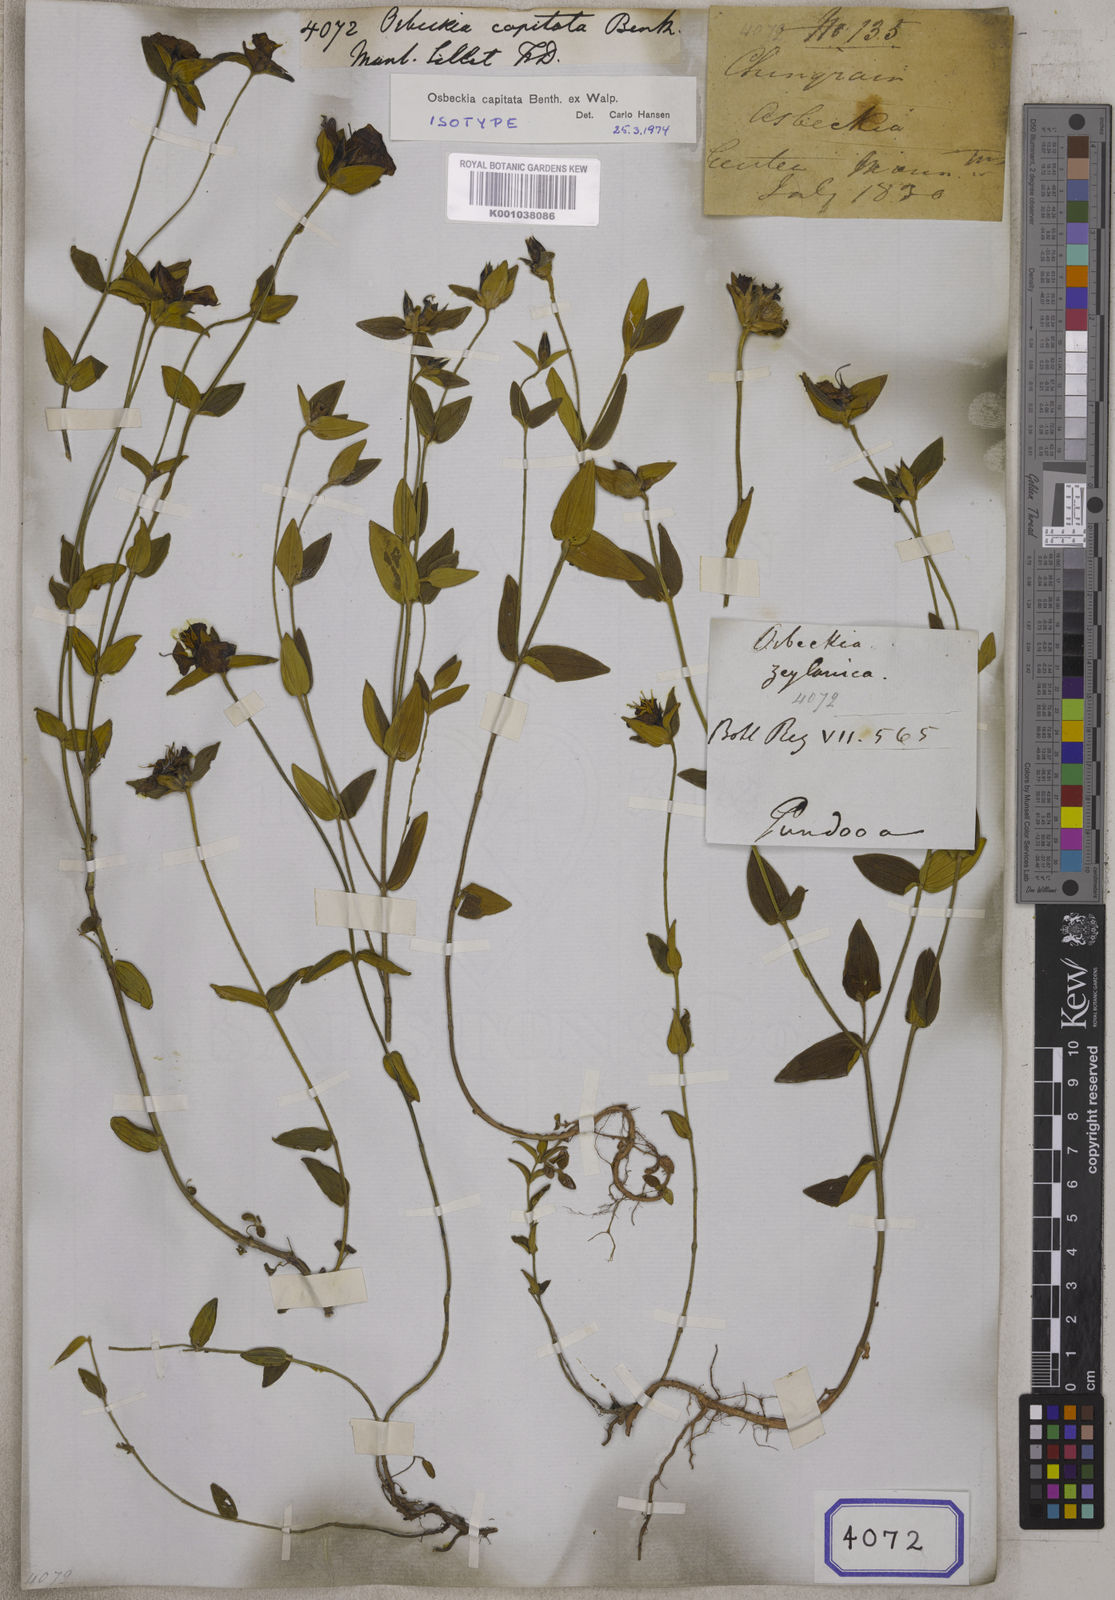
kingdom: Plantae
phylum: Tracheophyta
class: Magnoliopsida
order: Myrtales
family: Melastomataceae
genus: Osbeckia
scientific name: Osbeckia capitata
